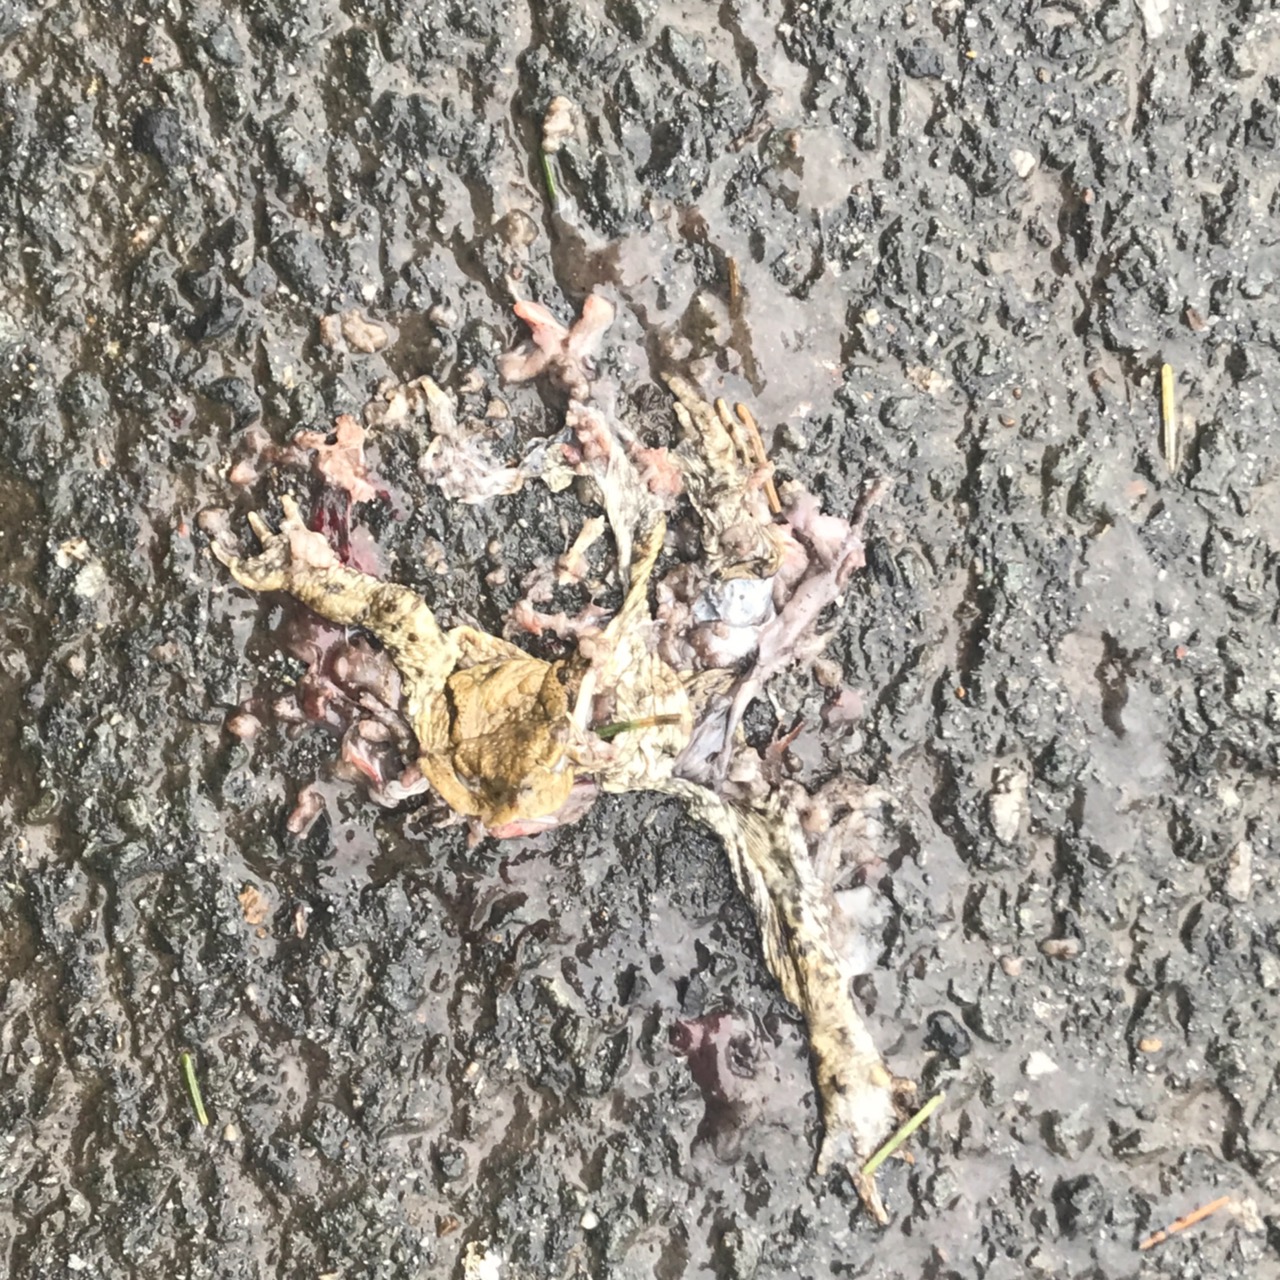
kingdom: Animalia
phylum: Chordata
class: Amphibia
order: Anura
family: Bufonidae
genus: Bufo
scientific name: Bufo bufo
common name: Common toad
